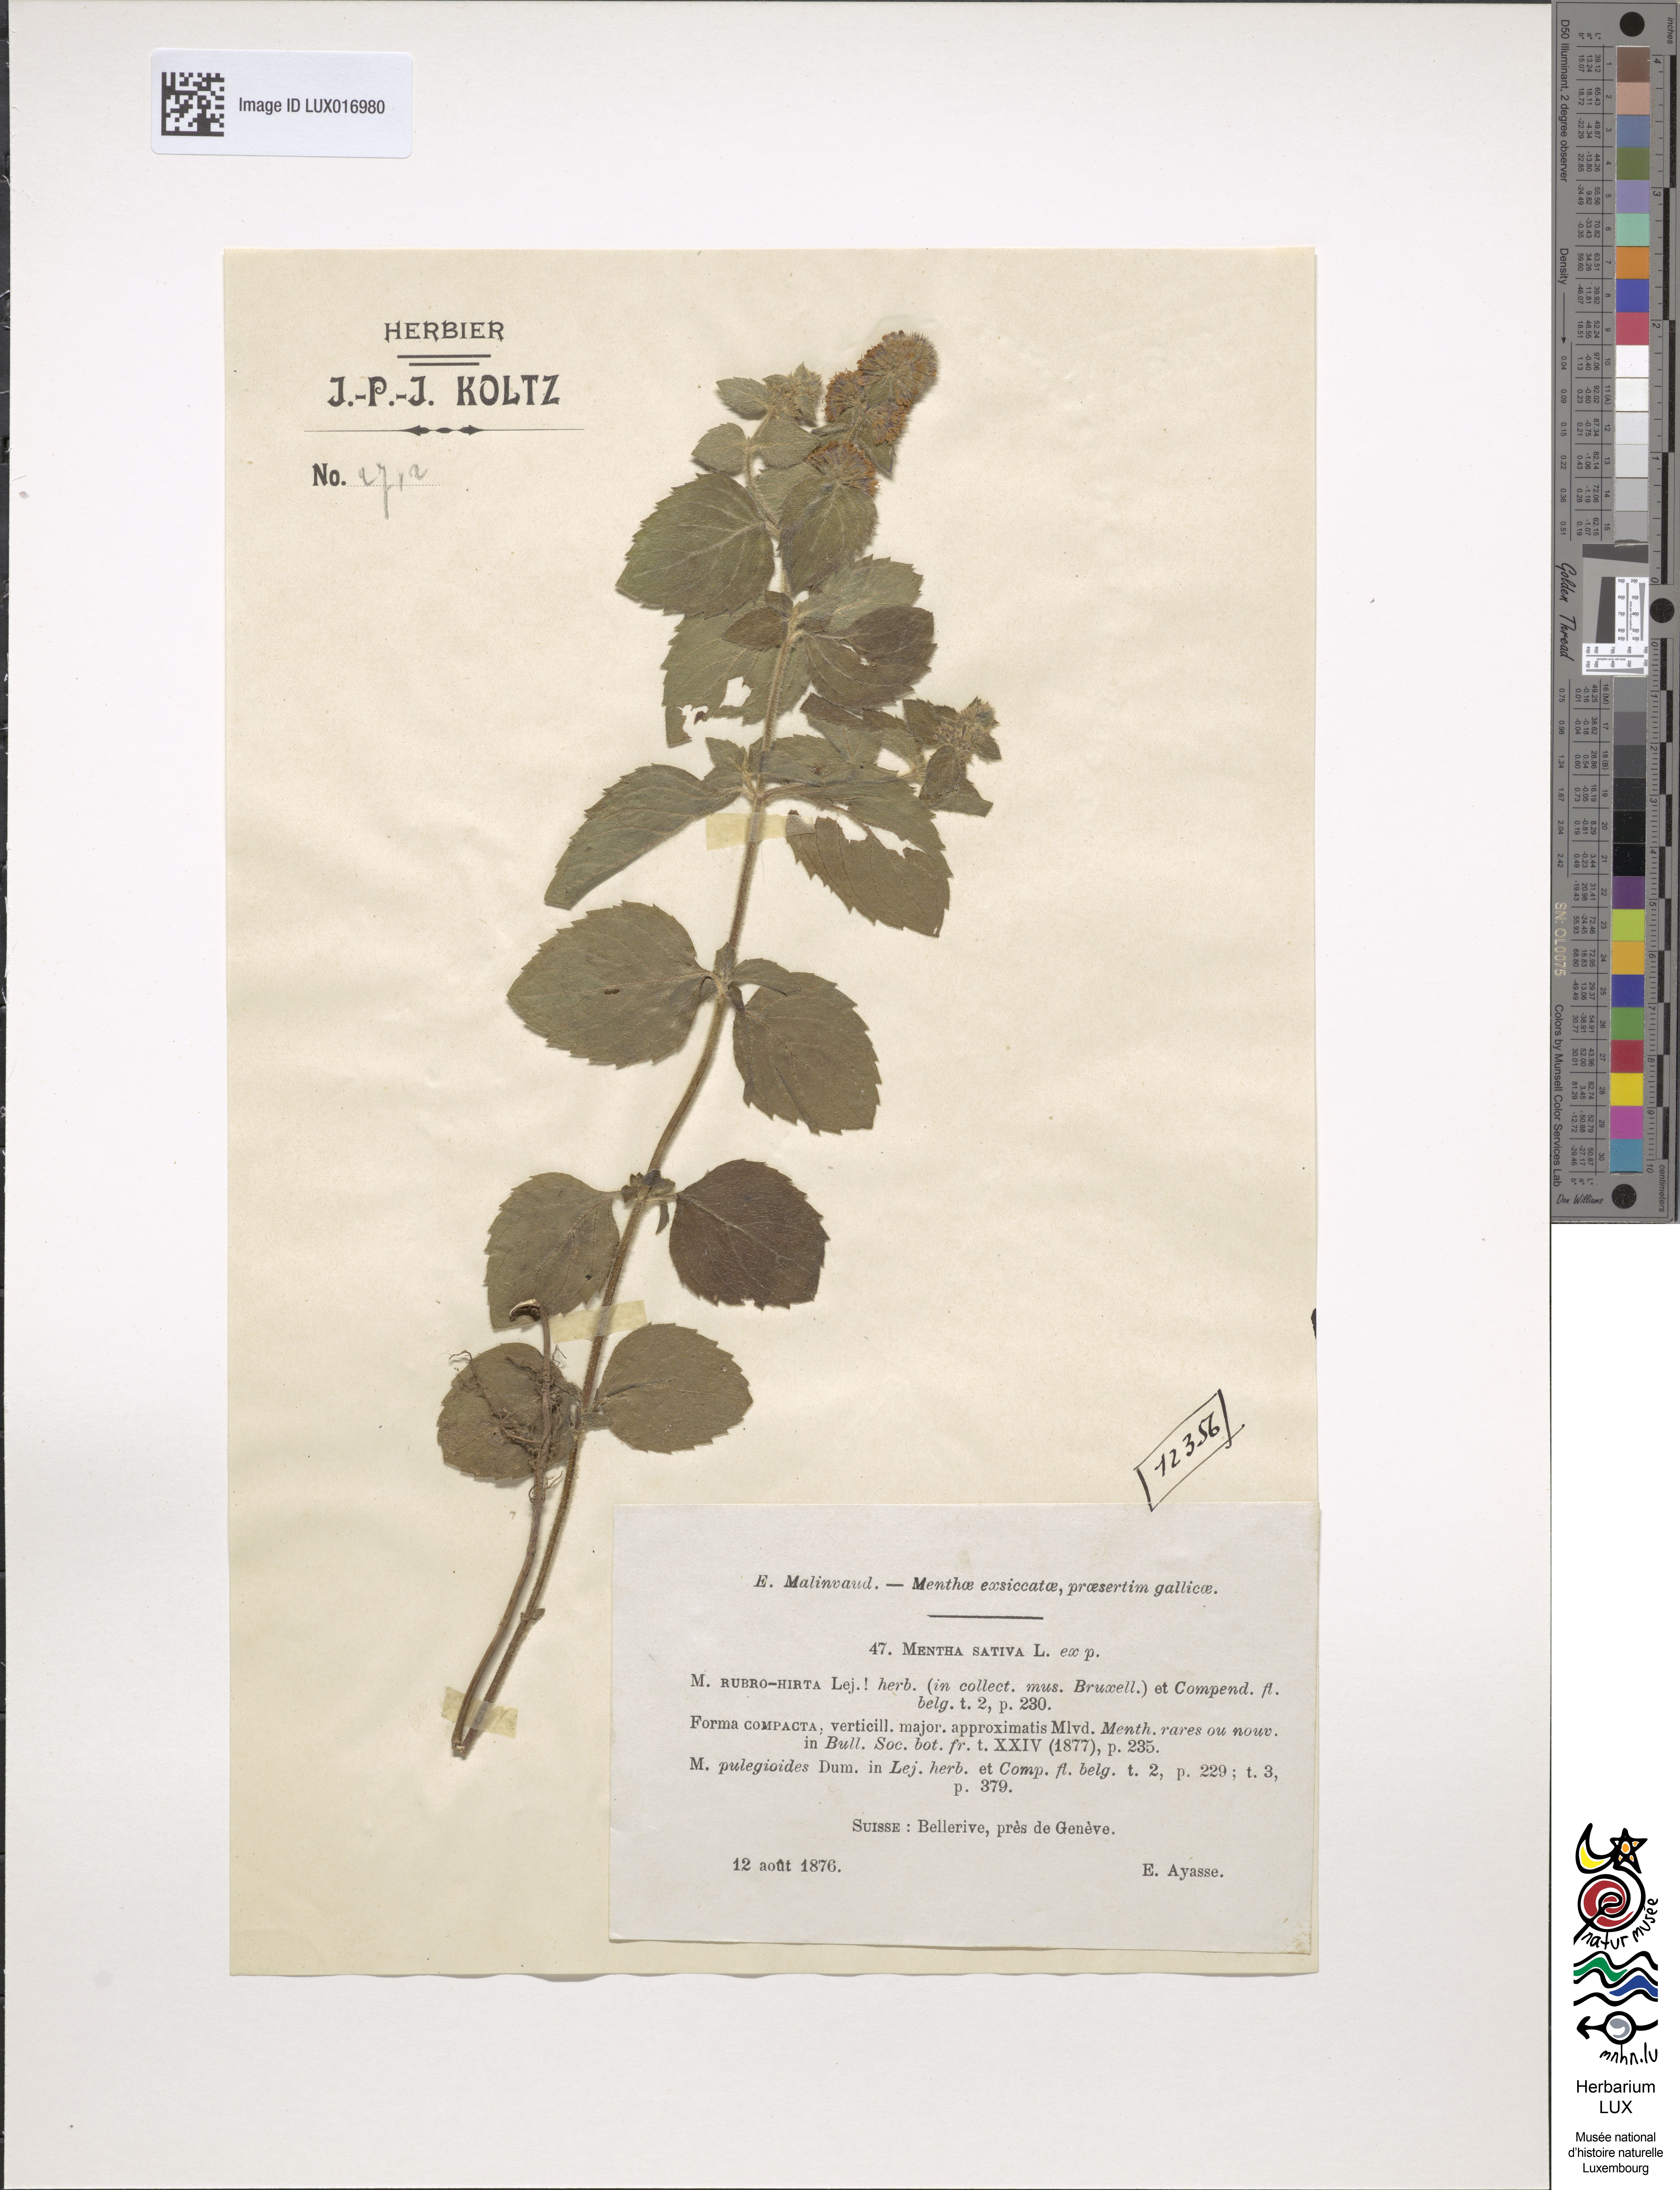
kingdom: Plantae
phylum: Tracheophyta
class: Magnoliopsida
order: Lamiales
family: Lamiaceae
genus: Mentha
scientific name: Mentha verticillata
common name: Mint
